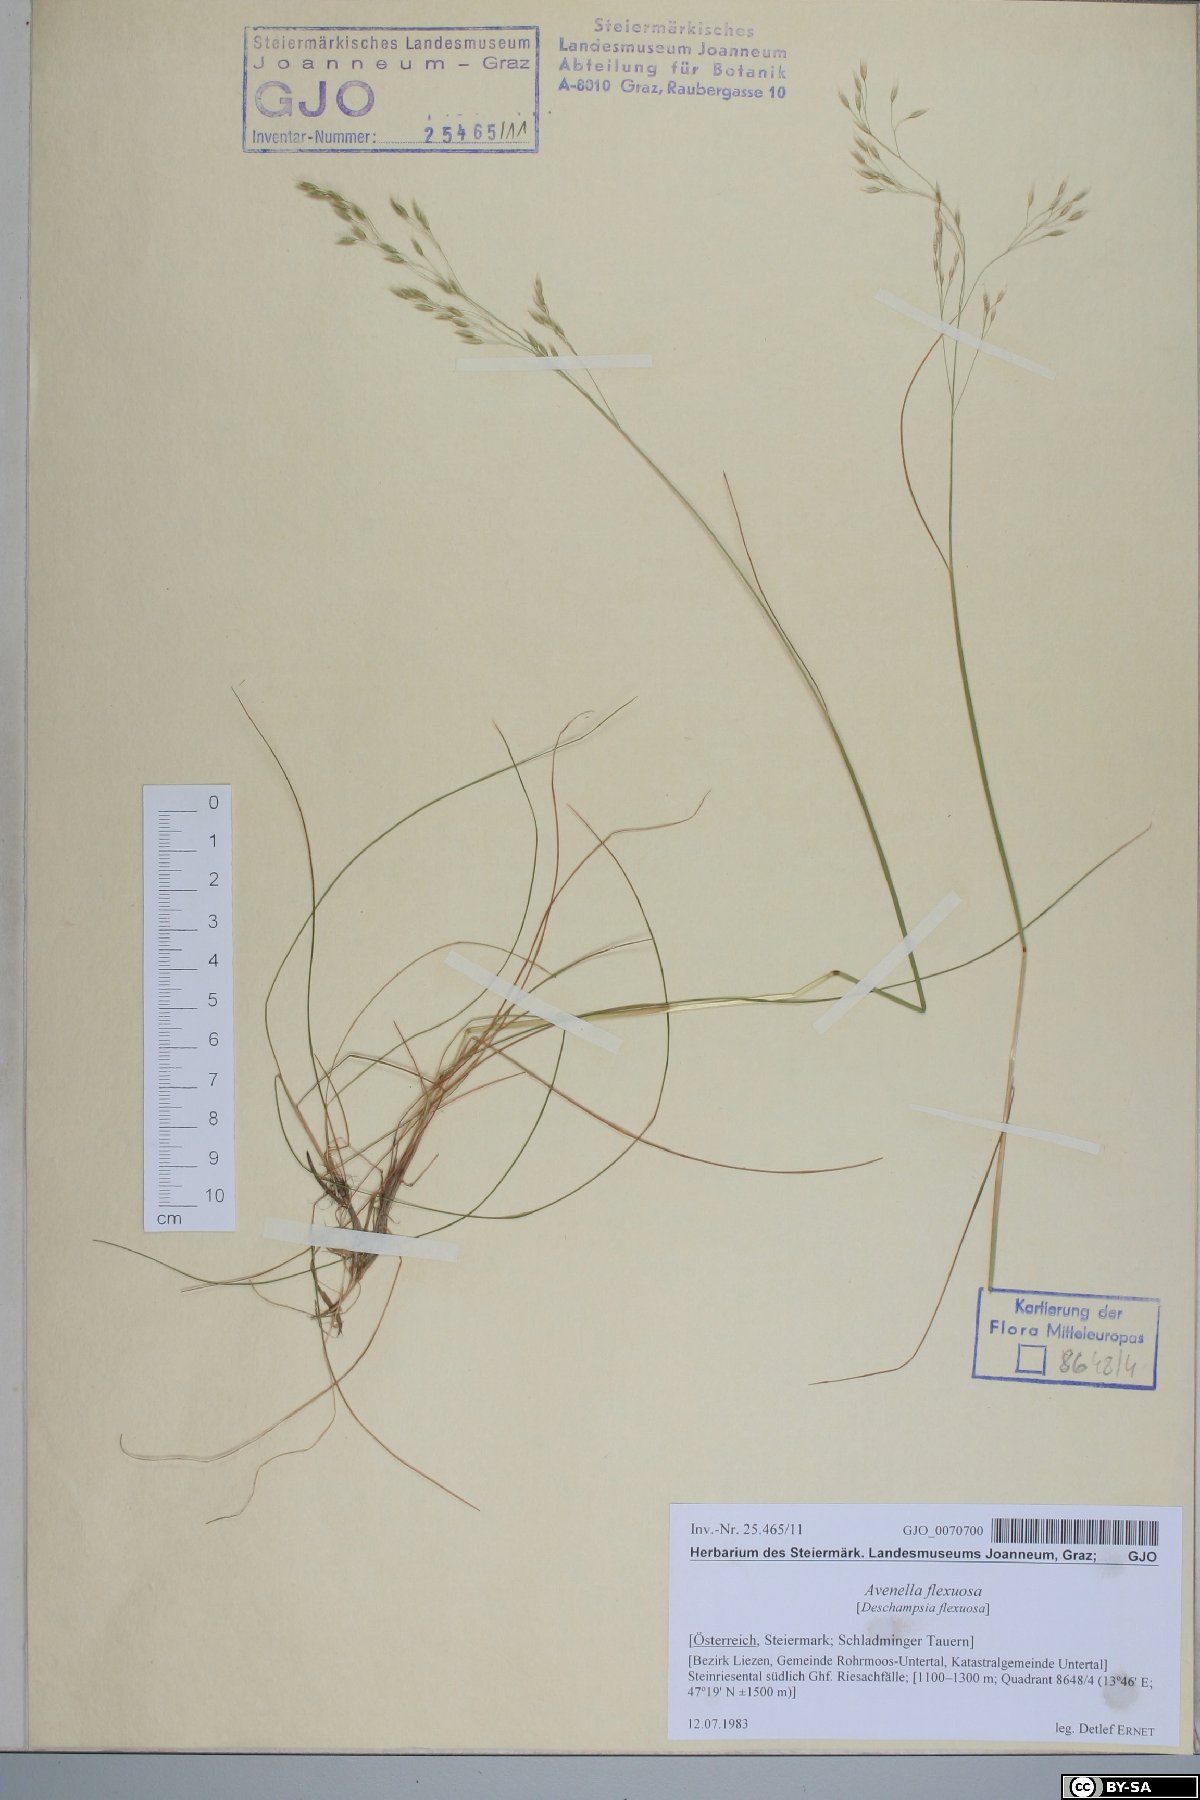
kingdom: Plantae
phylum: Tracheophyta
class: Liliopsida
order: Poales
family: Poaceae
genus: Avenella
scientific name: Avenella flexuosa
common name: Wavy hairgrass
